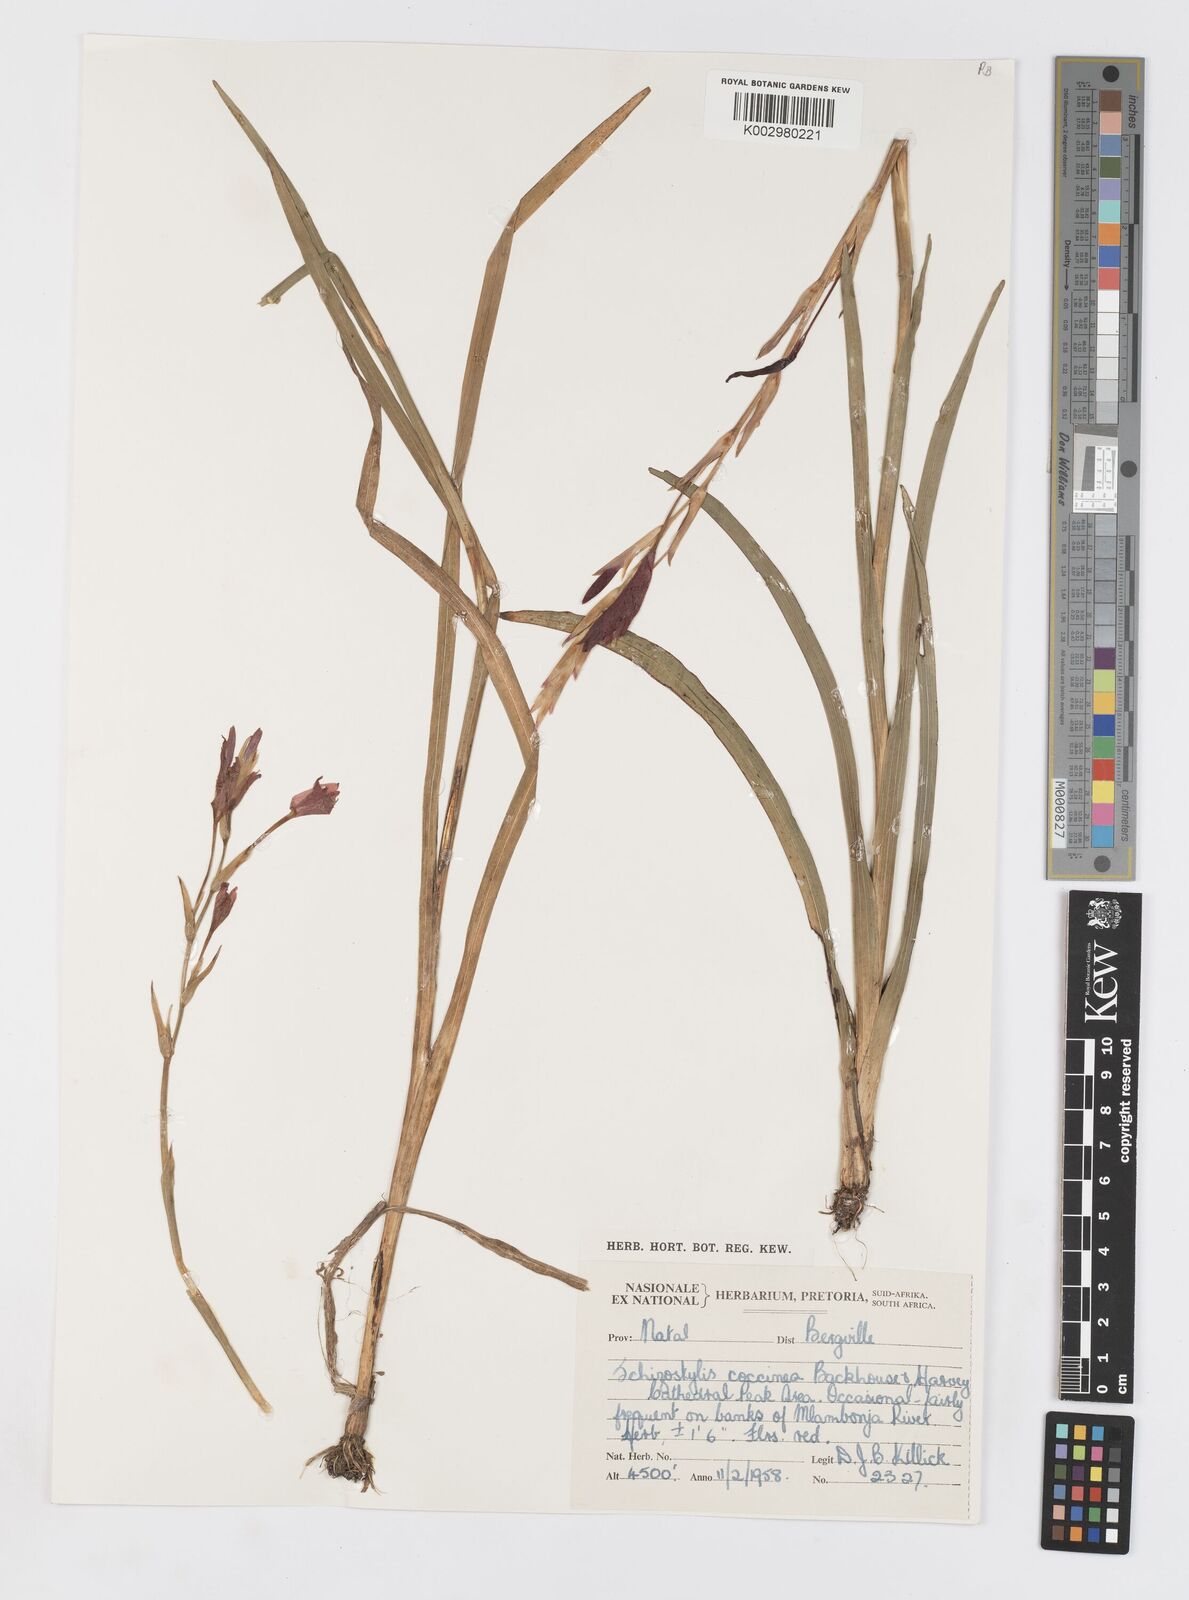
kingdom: Plantae
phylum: Tracheophyta
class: Liliopsida
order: Asparagales
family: Iridaceae
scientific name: Iridaceae
